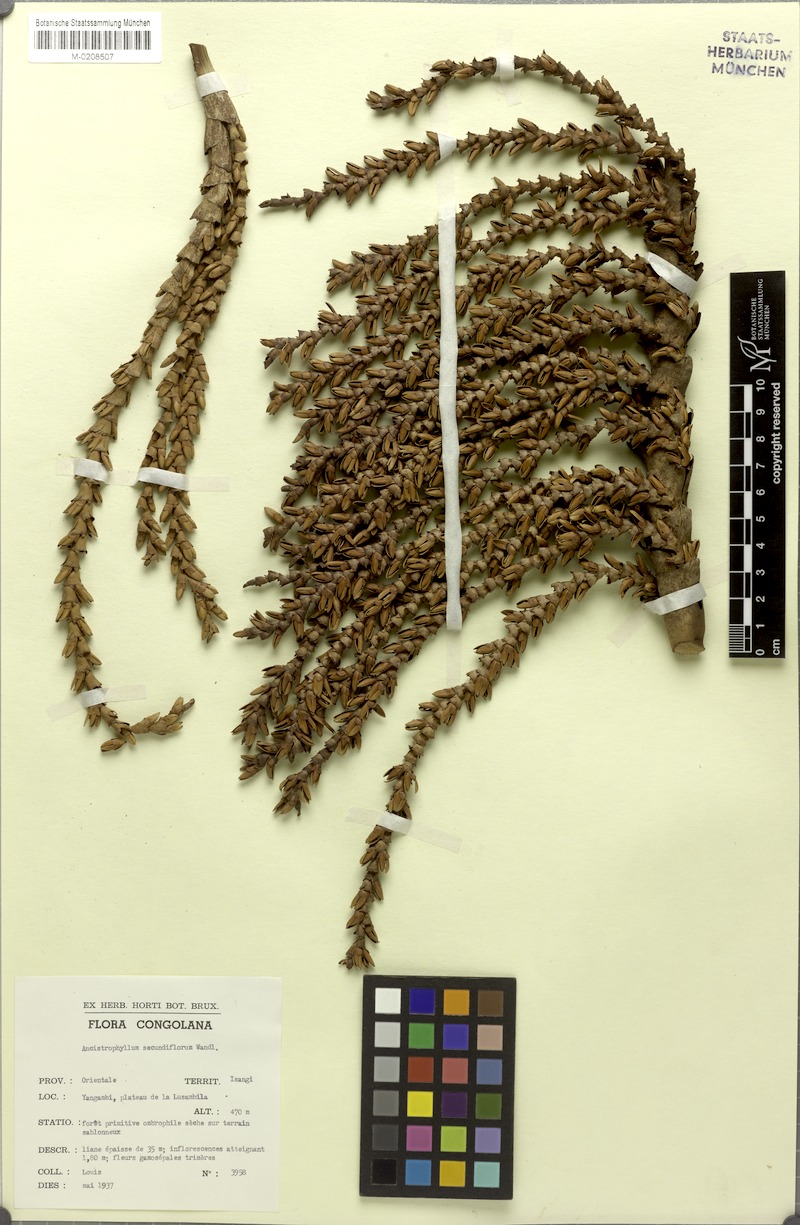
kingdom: Plantae
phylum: Tracheophyta
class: Liliopsida
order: Arecales
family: Arecaceae
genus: Laccosperma
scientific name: Laccosperma secundiflorum
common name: Rattan
